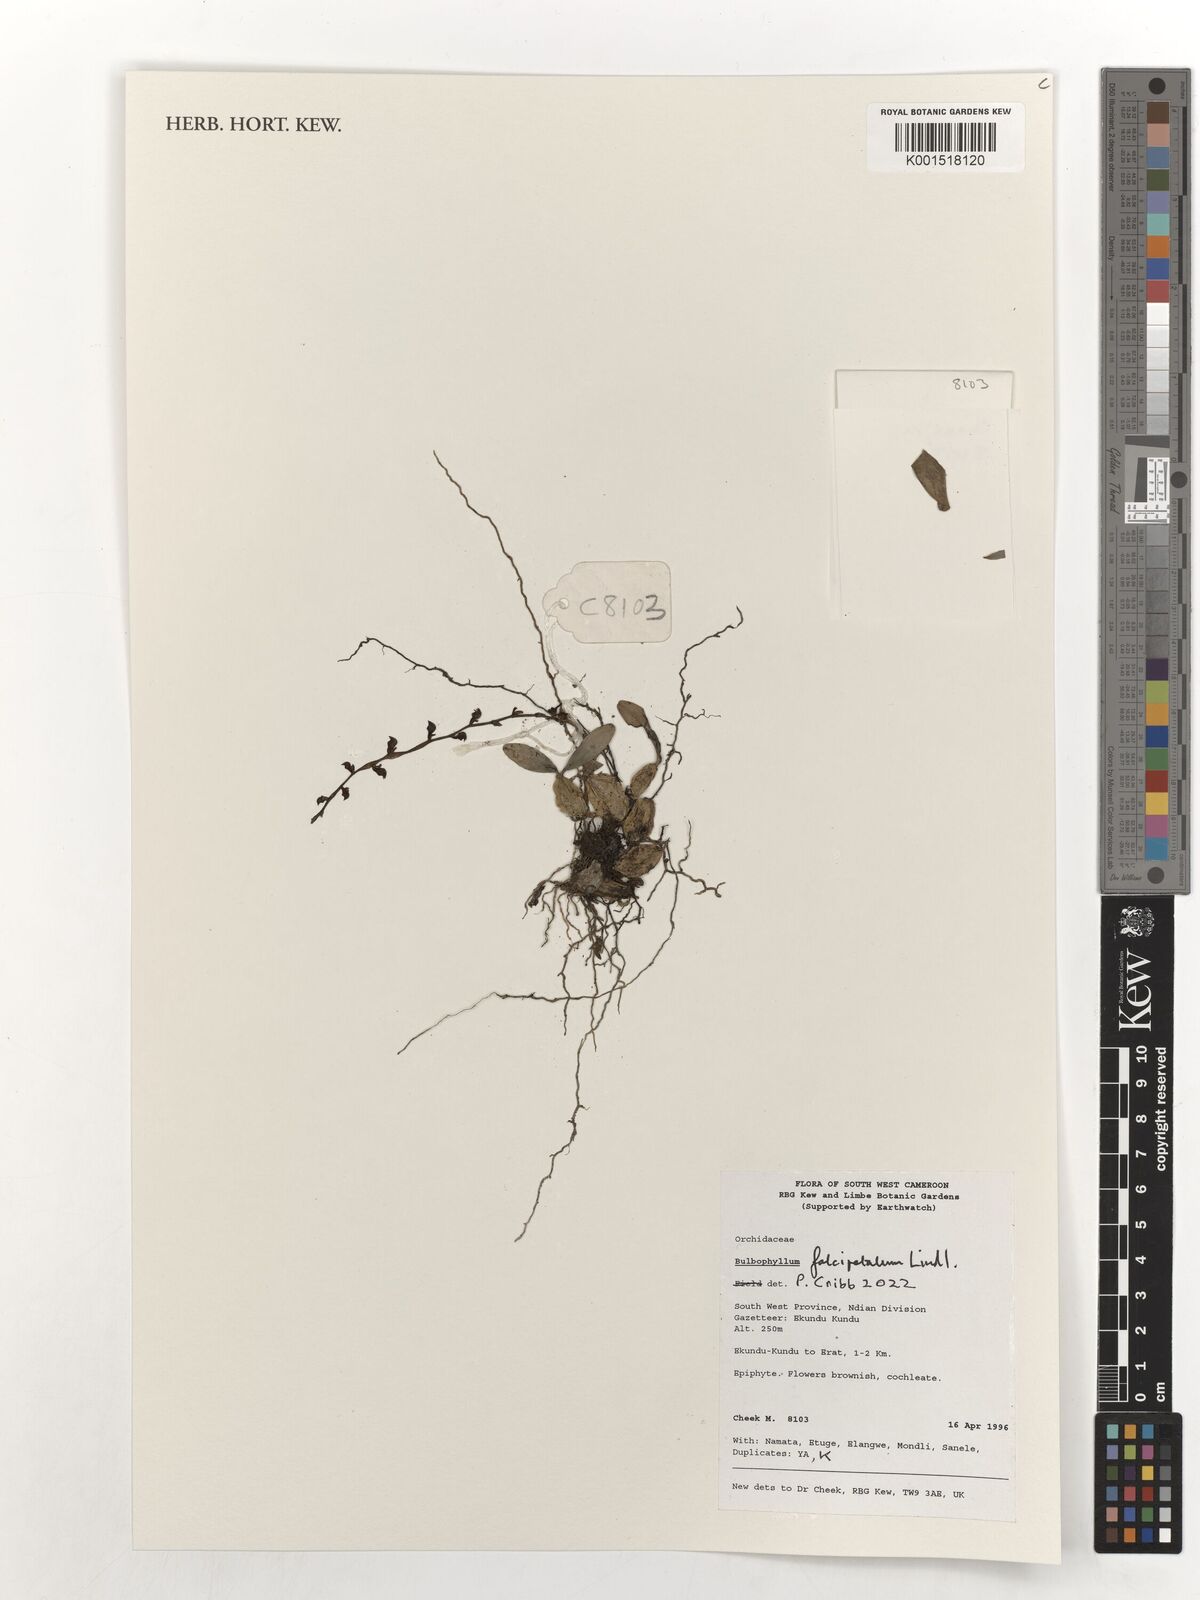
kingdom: Plantae
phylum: Tracheophyta
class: Liliopsida
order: Asparagales
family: Orchidaceae
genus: Bulbophyllum
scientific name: Bulbophyllum falcipetalum
